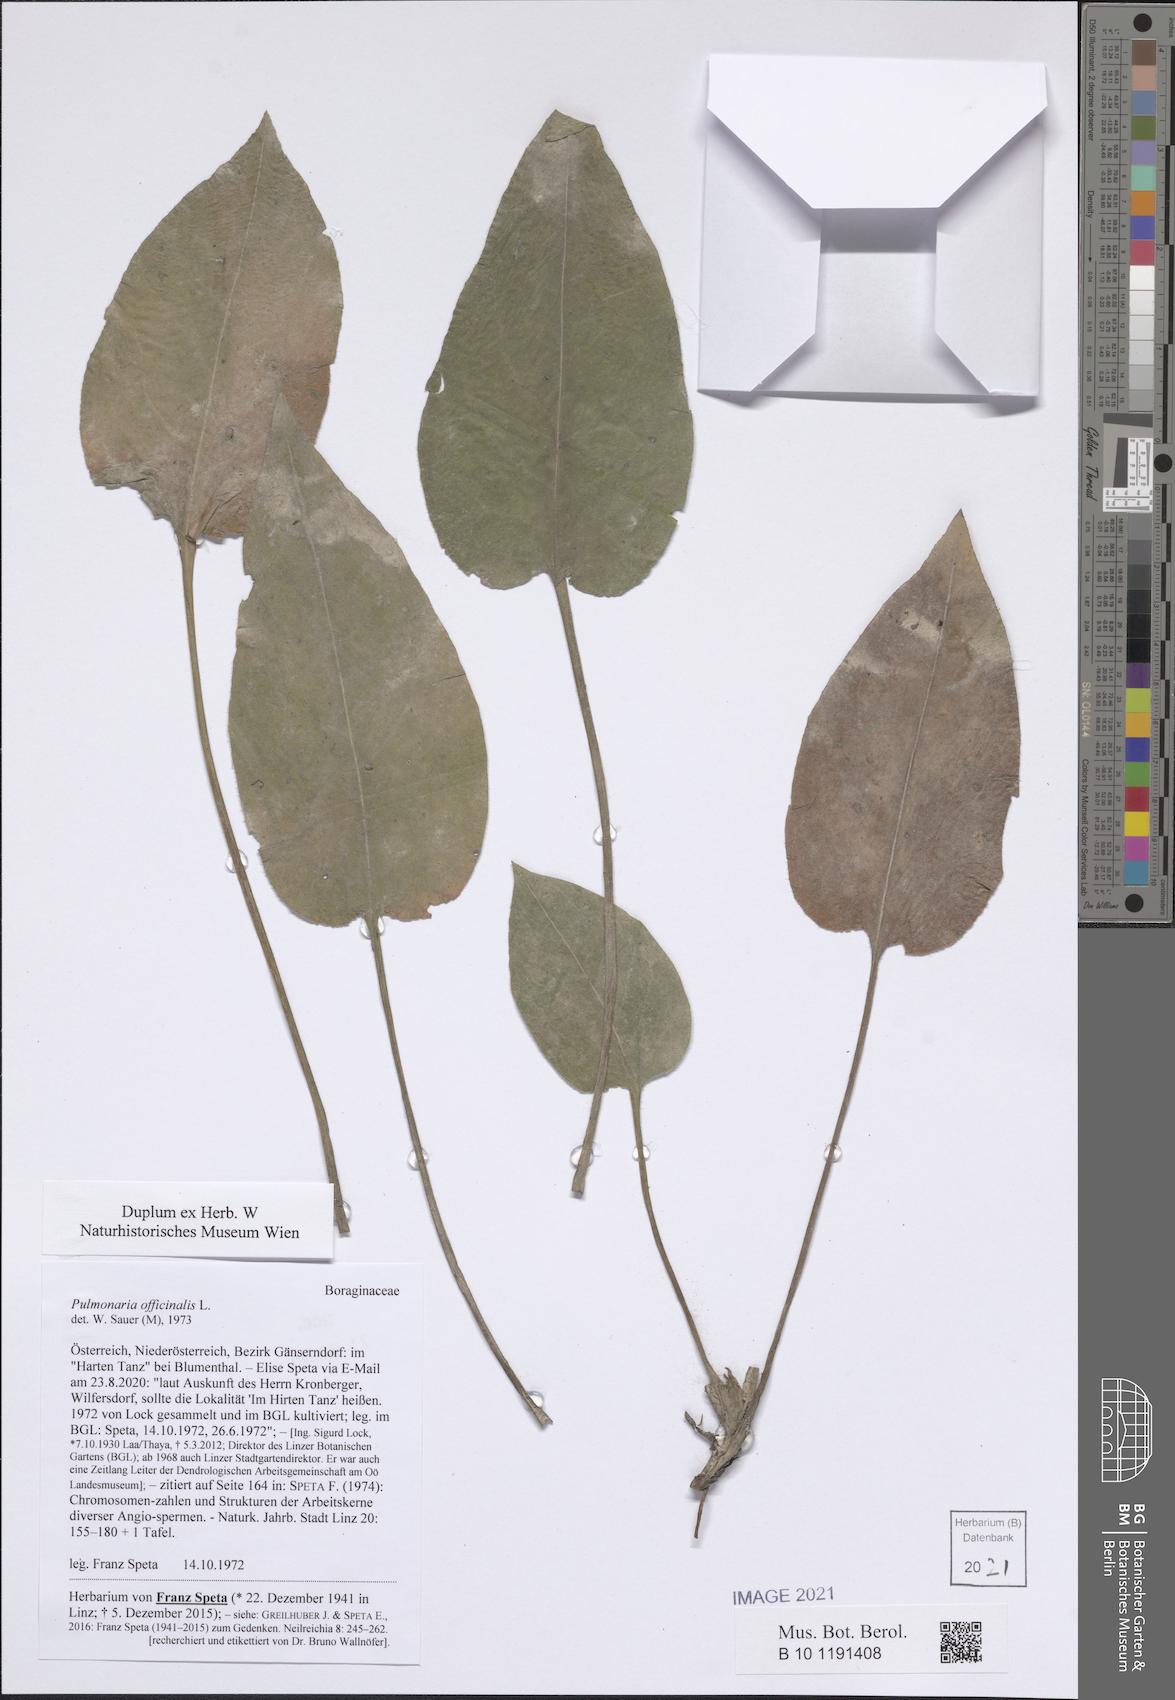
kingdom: Plantae
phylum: Tracheophyta
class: Magnoliopsida
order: Boraginales
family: Boraginaceae
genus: Pulmonaria
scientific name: Pulmonaria officinalis
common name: Lungwort
